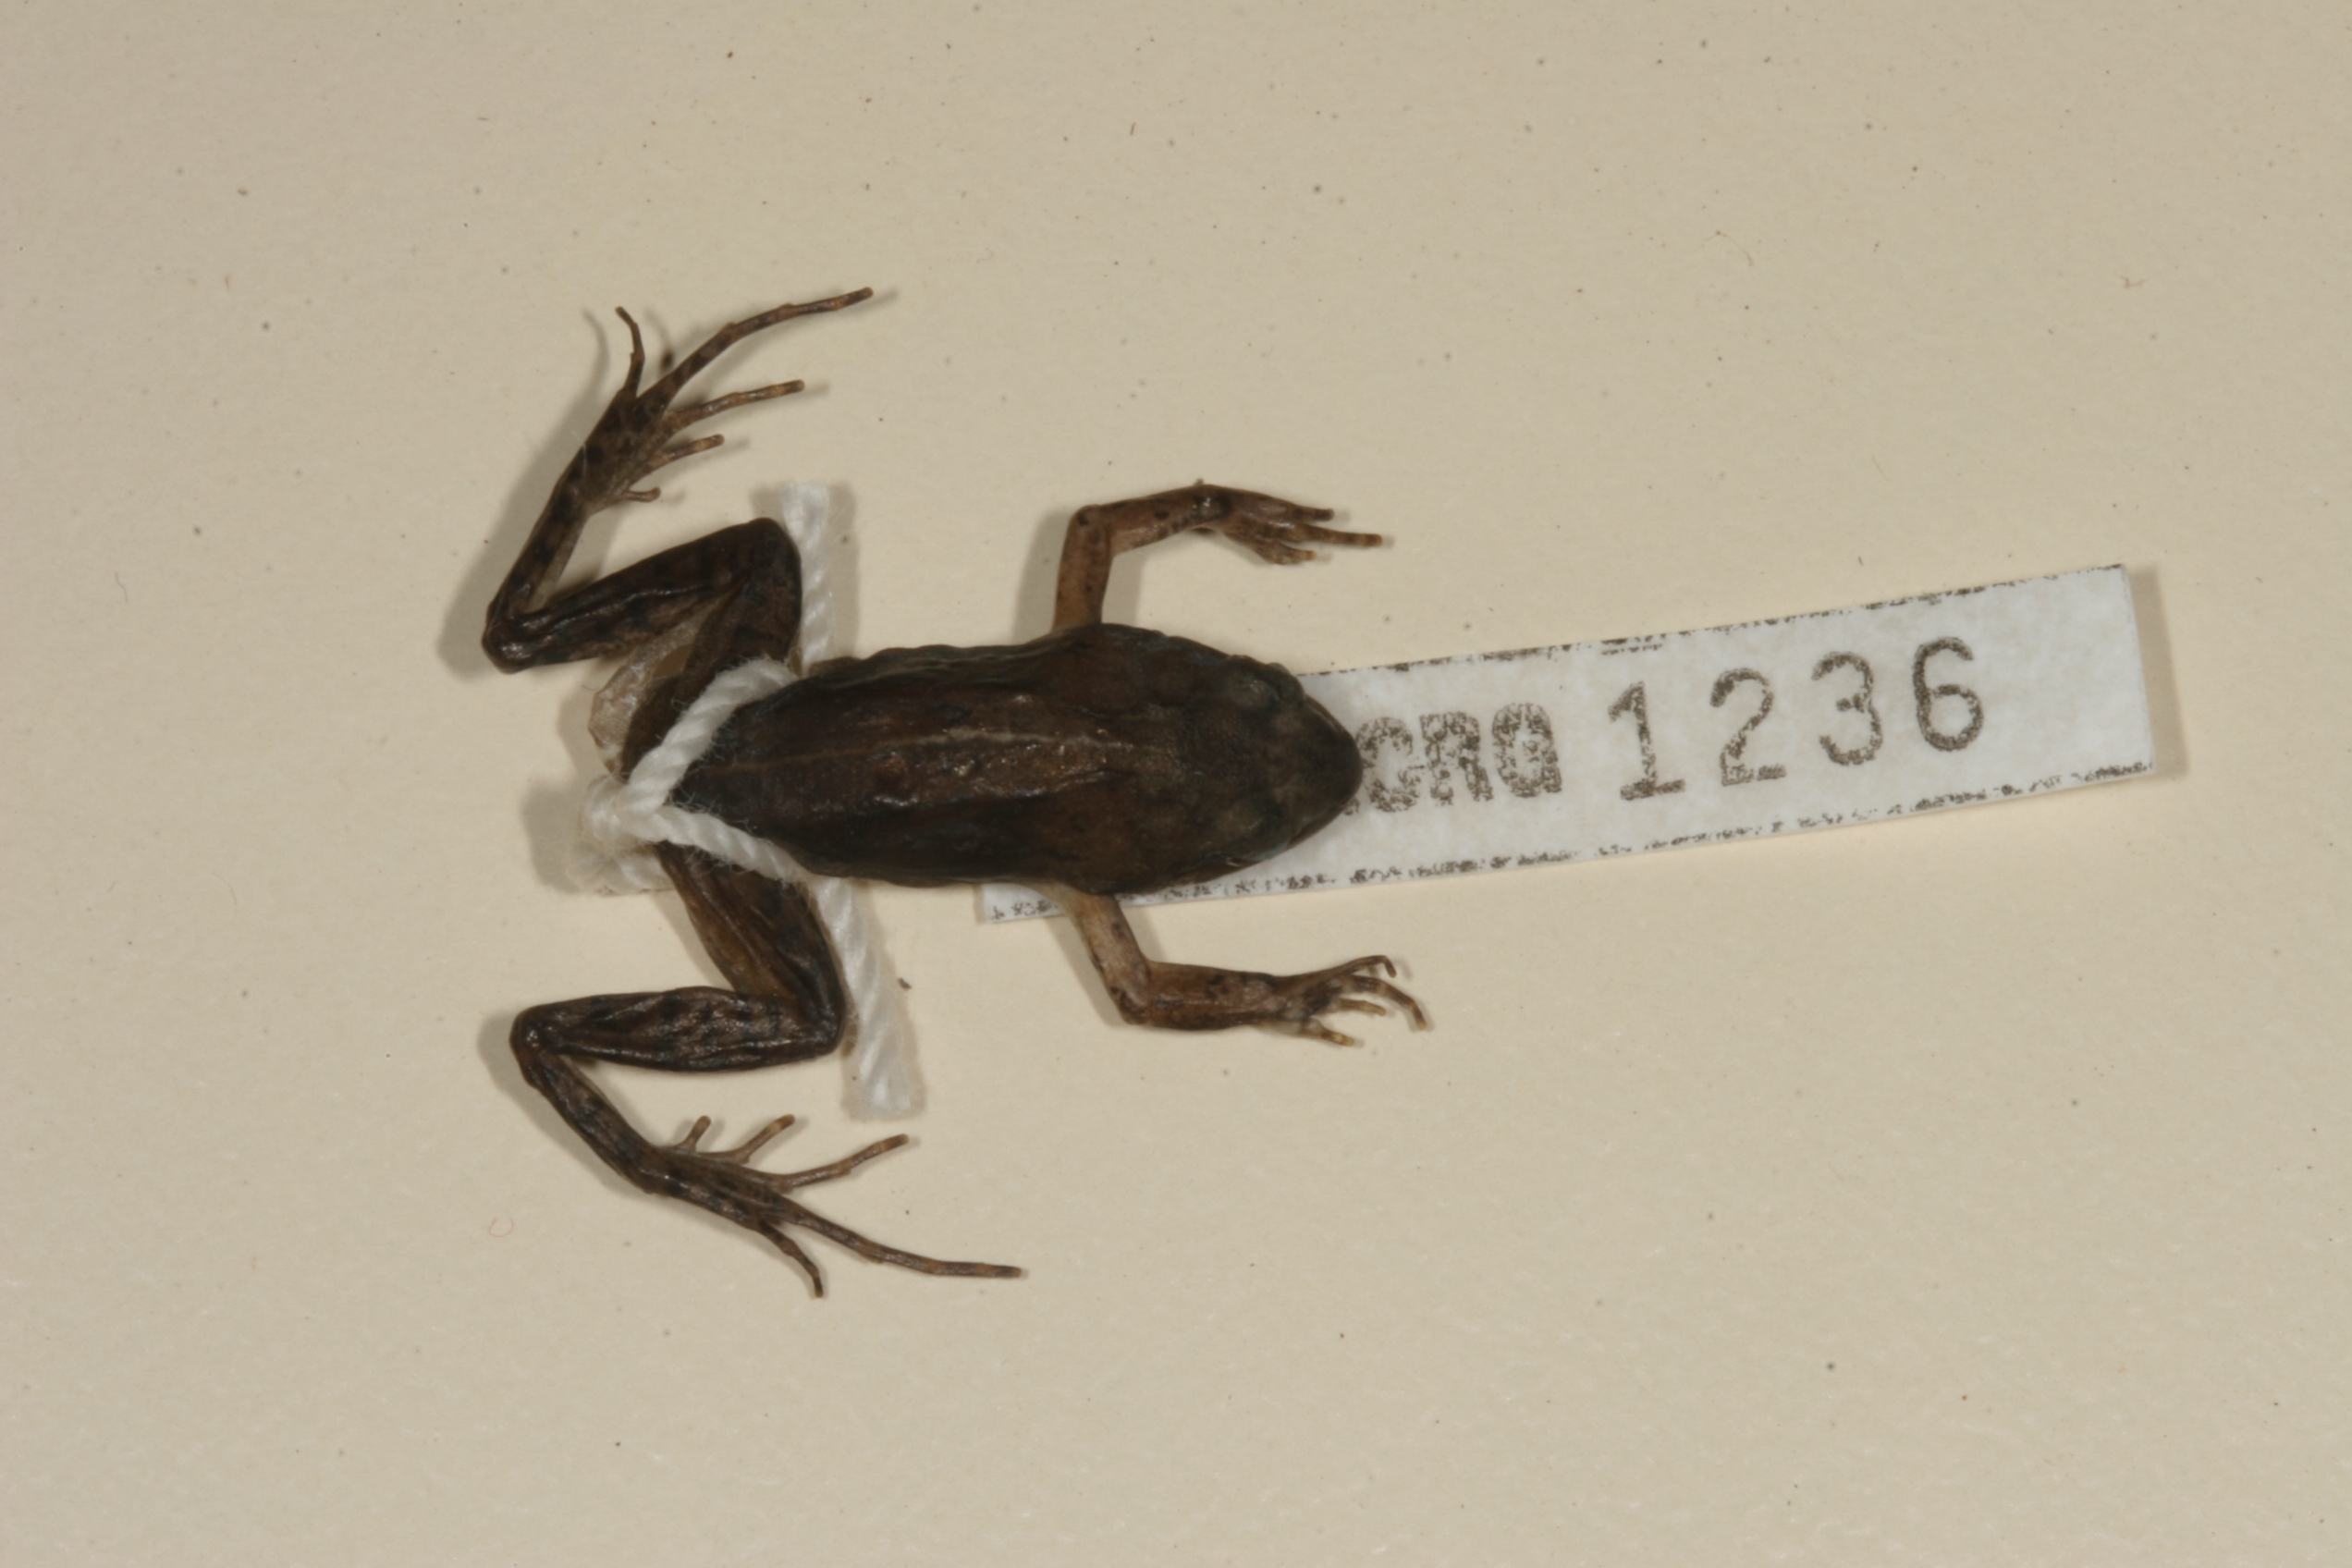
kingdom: Animalia
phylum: Chordata
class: Amphibia
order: Anura
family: Pyxicephalidae
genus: Cacosternum
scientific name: Cacosternum nanum
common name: Bronze dainty frog
